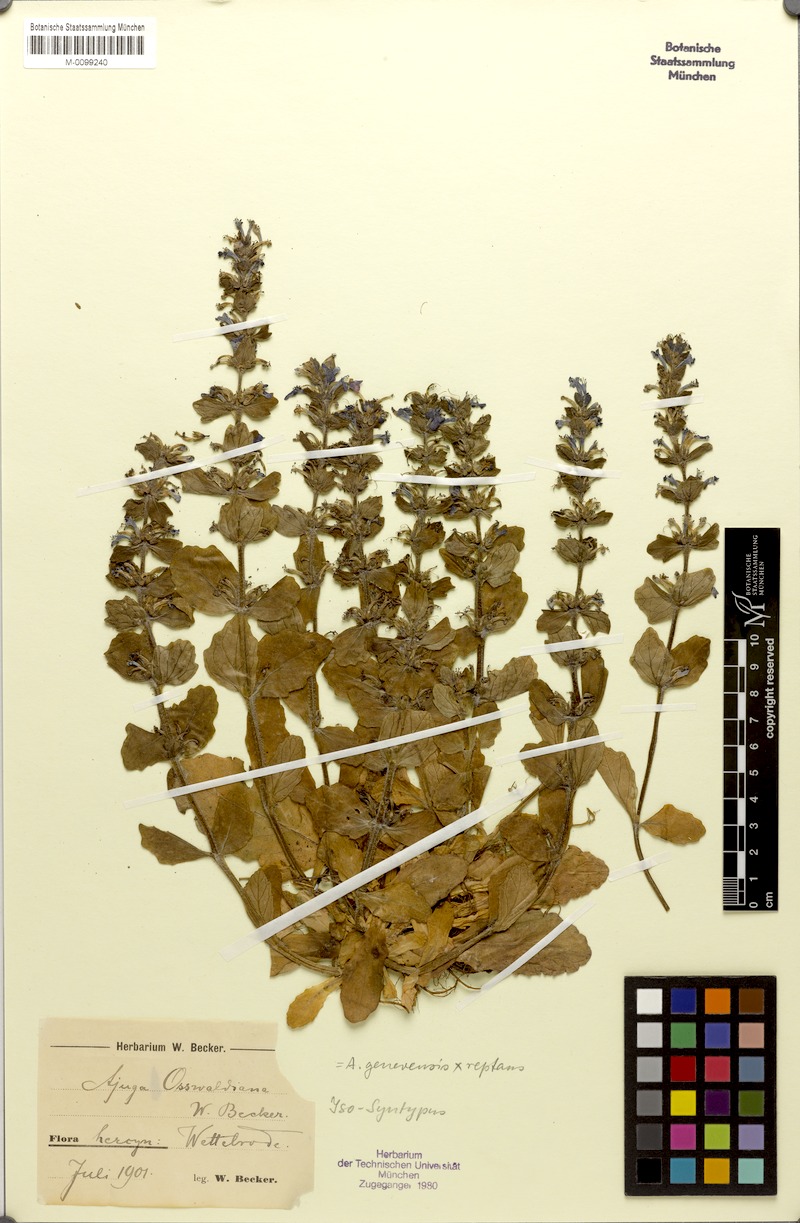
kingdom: Plantae
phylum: Tracheophyta
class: Magnoliopsida
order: Lamiales
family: Lamiaceae
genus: Ajuga
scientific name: Ajuga
